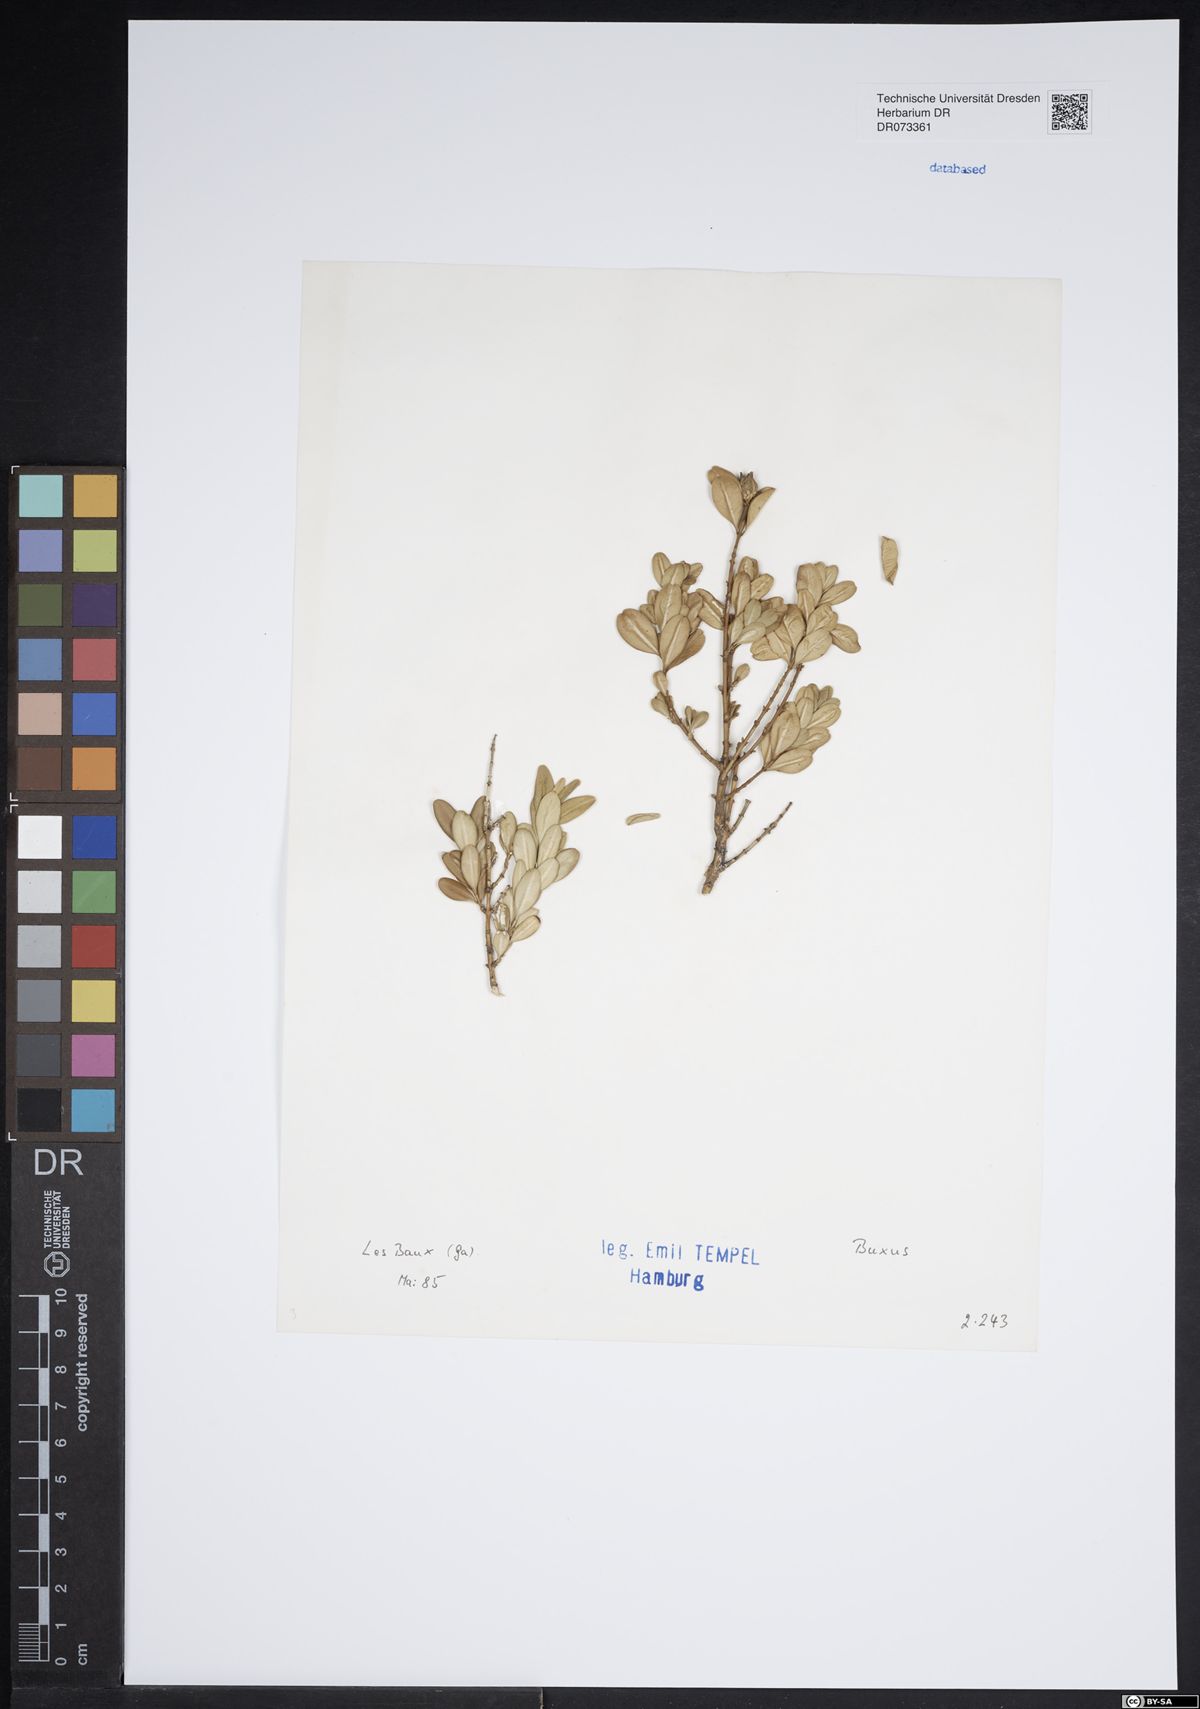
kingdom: Plantae
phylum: Tracheophyta
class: Magnoliopsida
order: Buxales
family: Buxaceae
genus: Buxus
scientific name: Buxus
